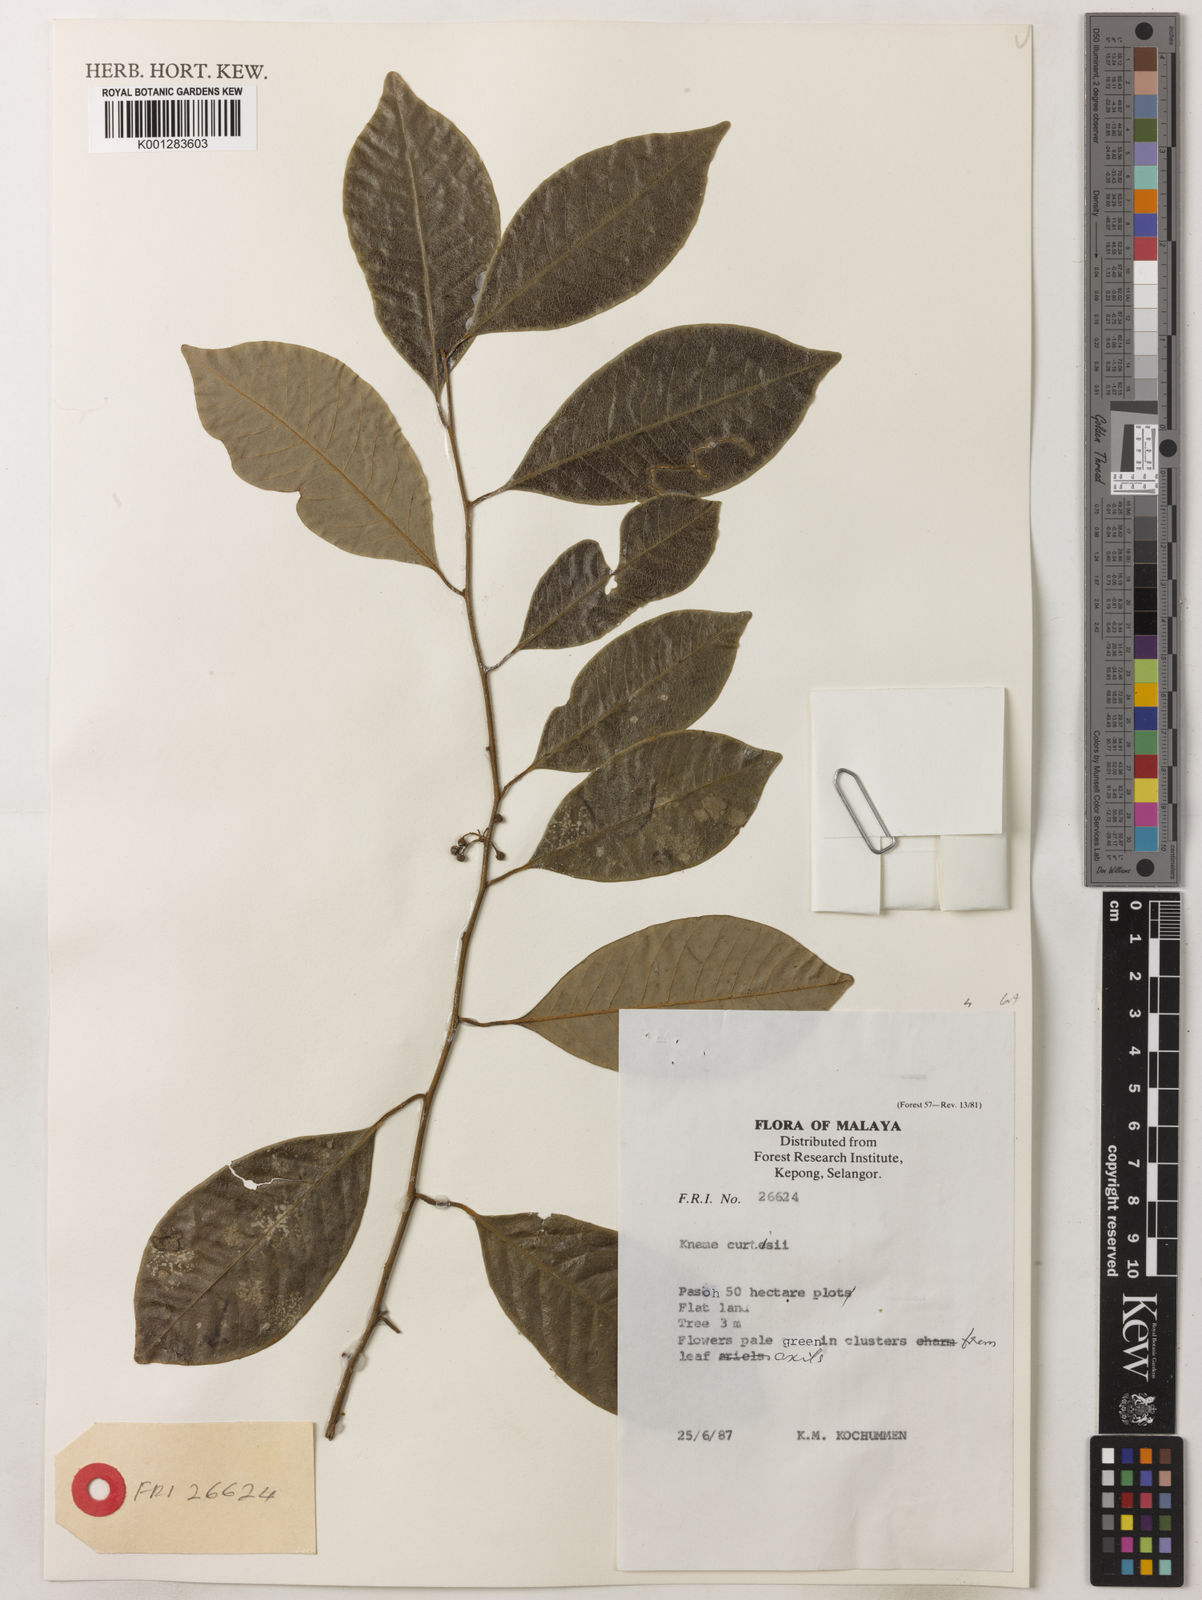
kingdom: Plantae
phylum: Tracheophyta
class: Magnoliopsida
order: Magnoliales
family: Myristicaceae
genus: Knema
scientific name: Knema curtisii
